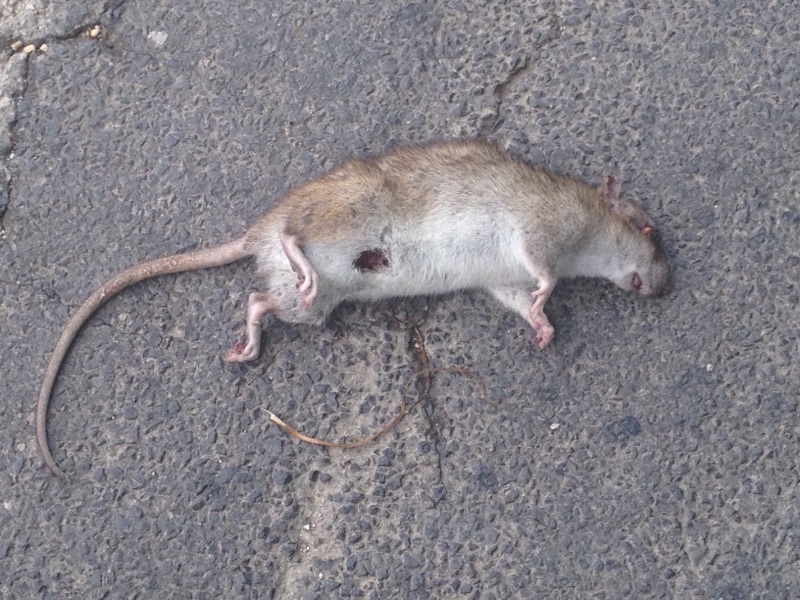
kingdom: Animalia
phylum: Chordata
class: Mammalia
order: Rodentia
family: Muridae
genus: Rattus
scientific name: Rattus norvegicus
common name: Brown rat
